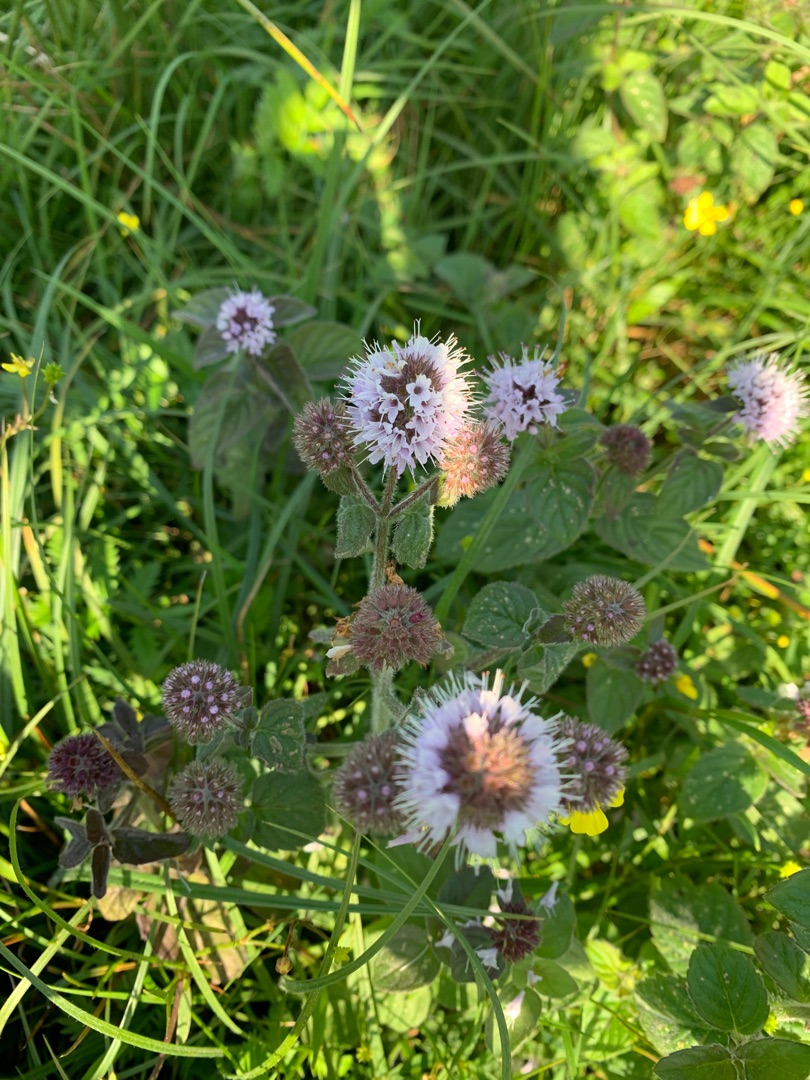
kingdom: Plantae
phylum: Tracheophyta
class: Magnoliopsida
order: Lamiales
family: Lamiaceae
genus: Mentha
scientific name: Mentha aquatica
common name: Vand-mynte
